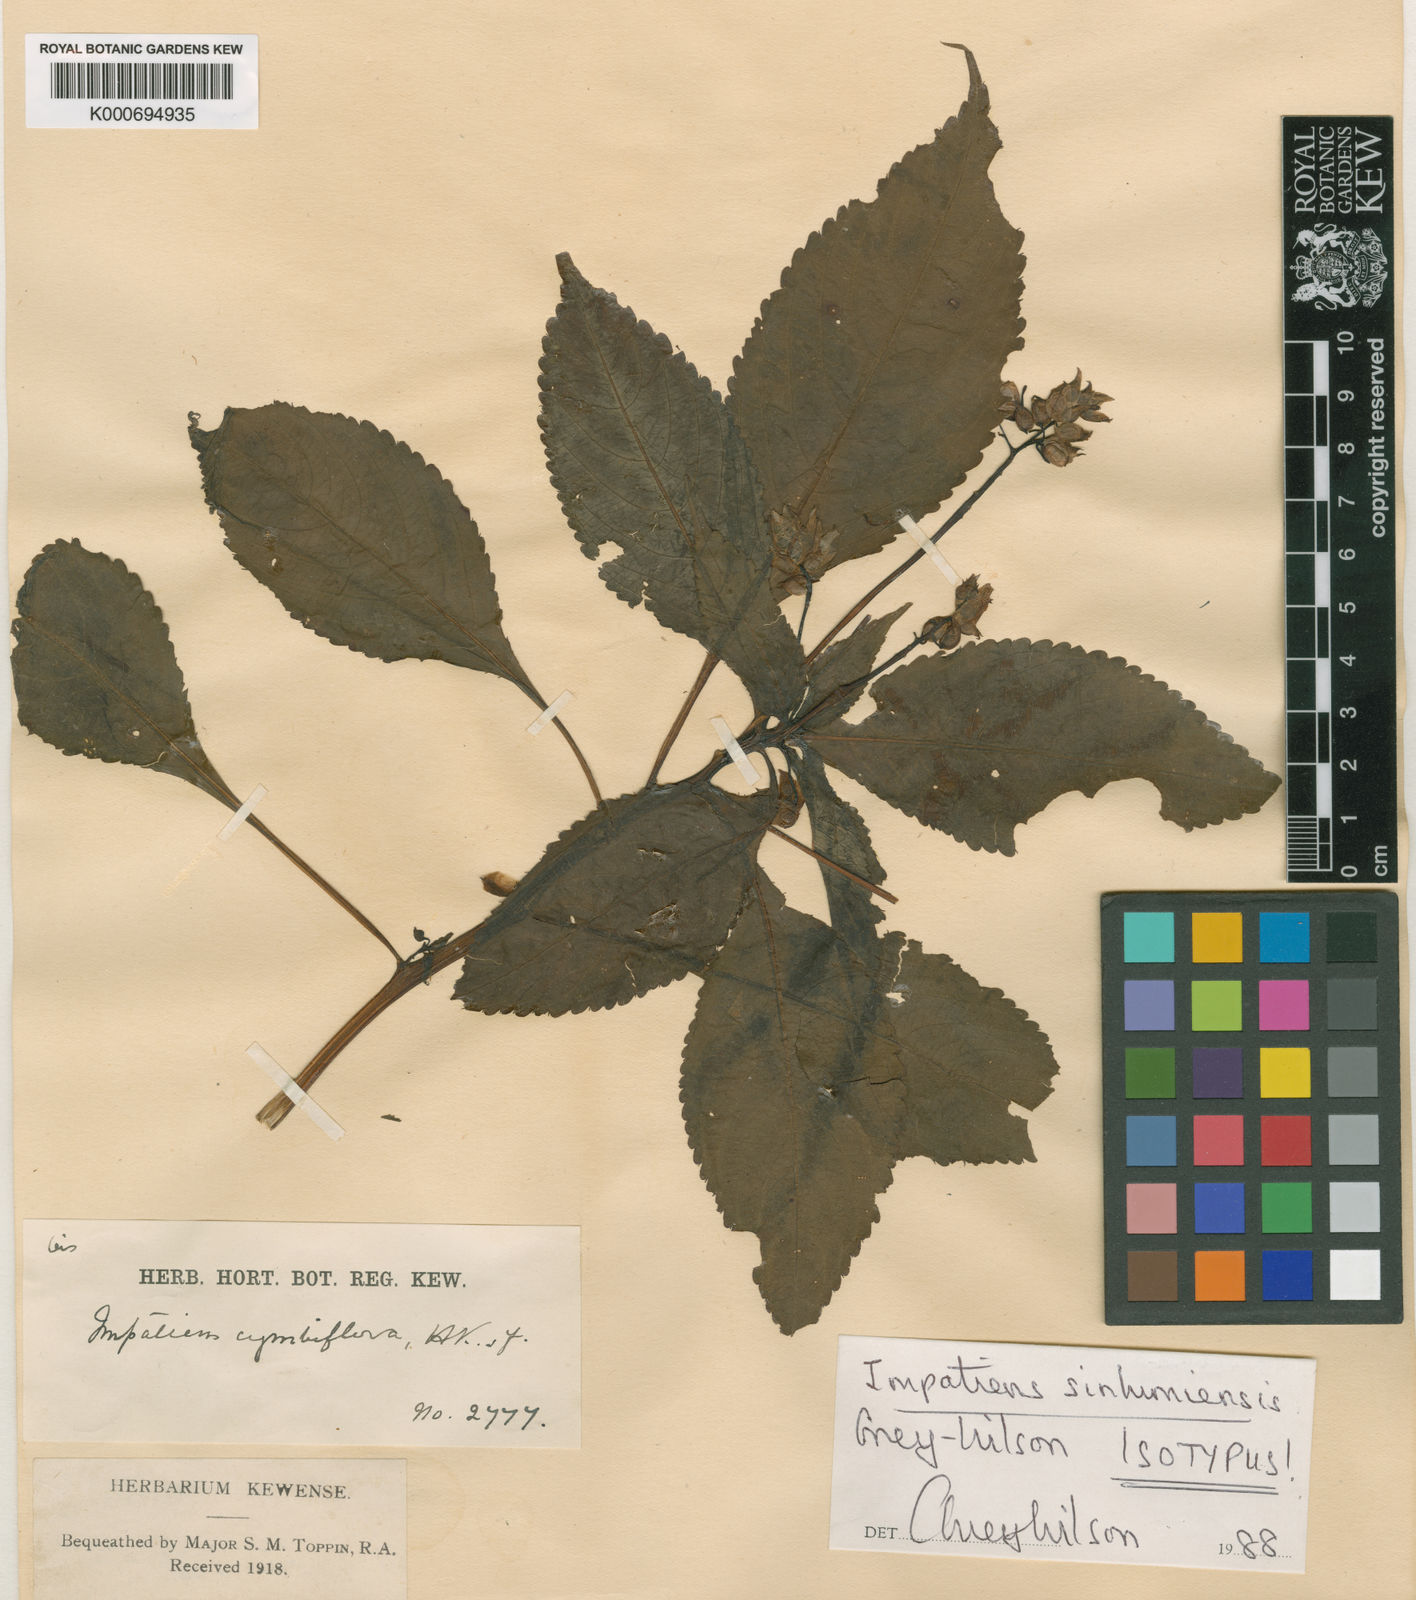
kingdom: Plantae
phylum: Tracheophyta
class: Magnoliopsida
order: Ericales
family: Balsaminaceae
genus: Impatiens
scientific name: Impatiens sinlumiensis
